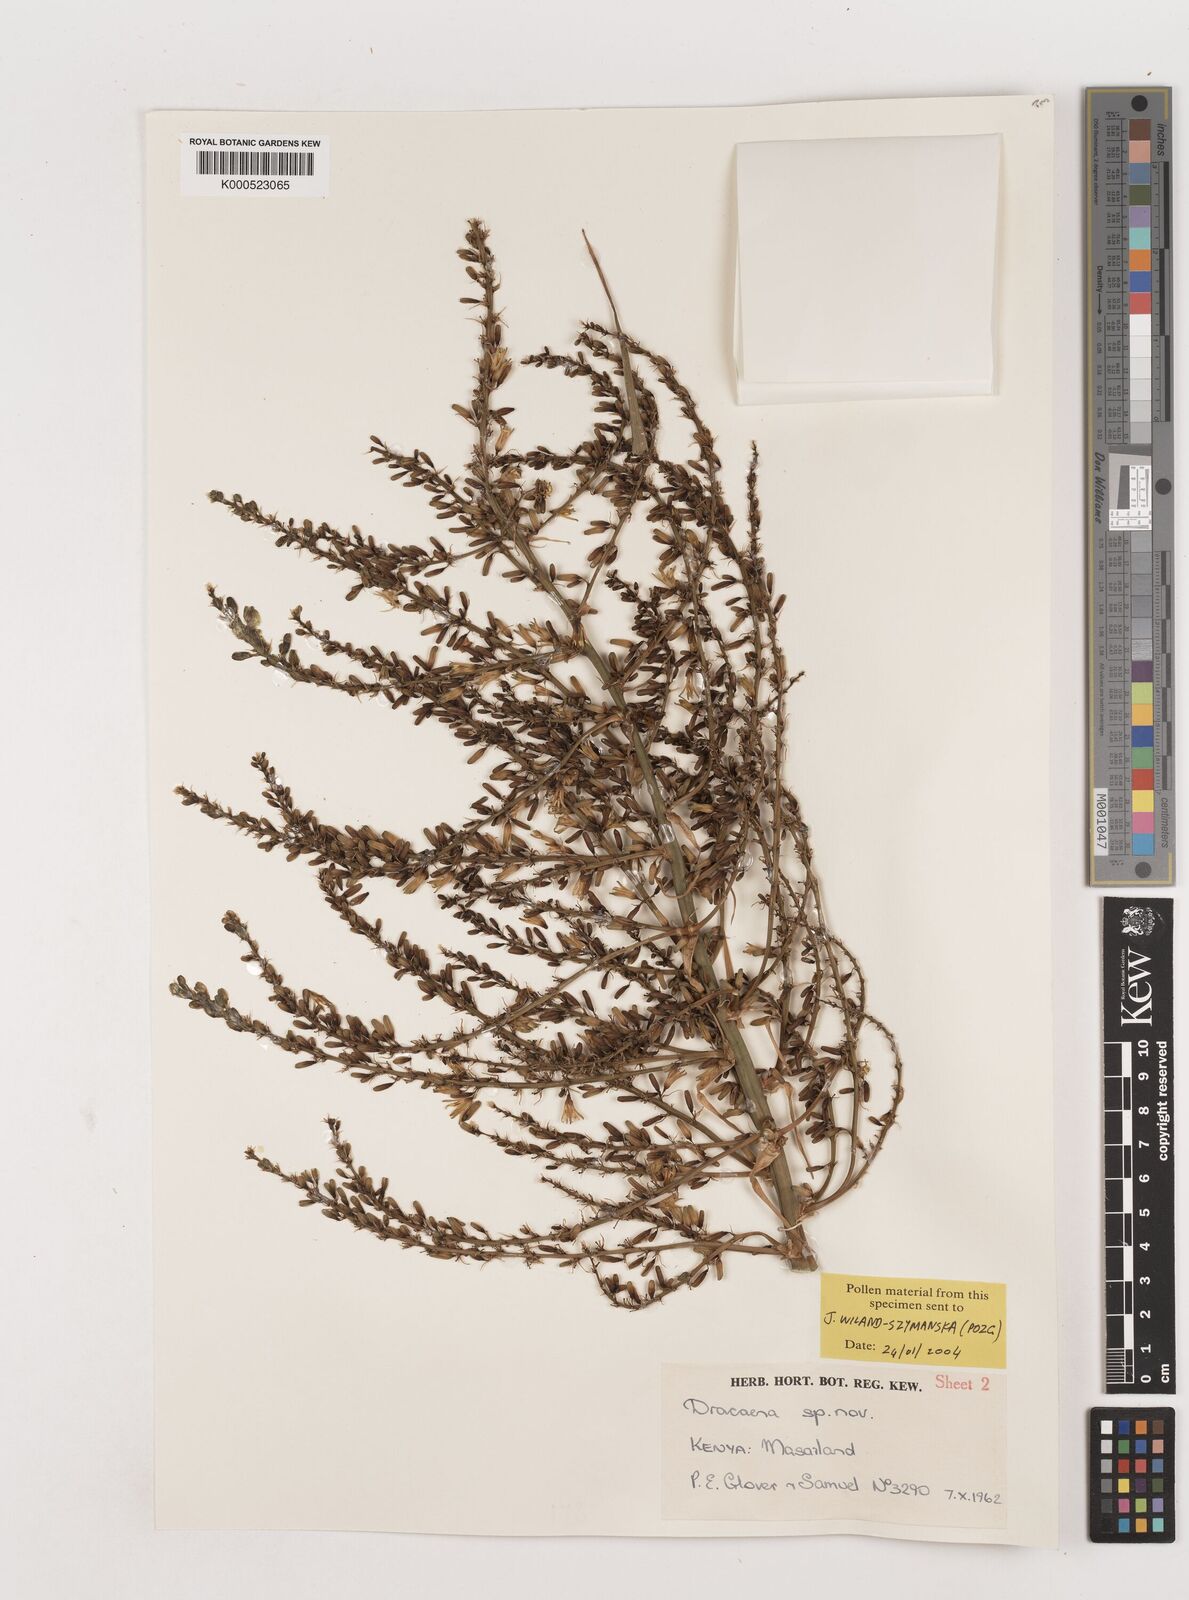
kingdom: Plantae
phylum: Tracheophyta
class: Liliopsida
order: Asparagales
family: Asparagaceae
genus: Dracaena
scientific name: Dracaena ellenbeckiana
